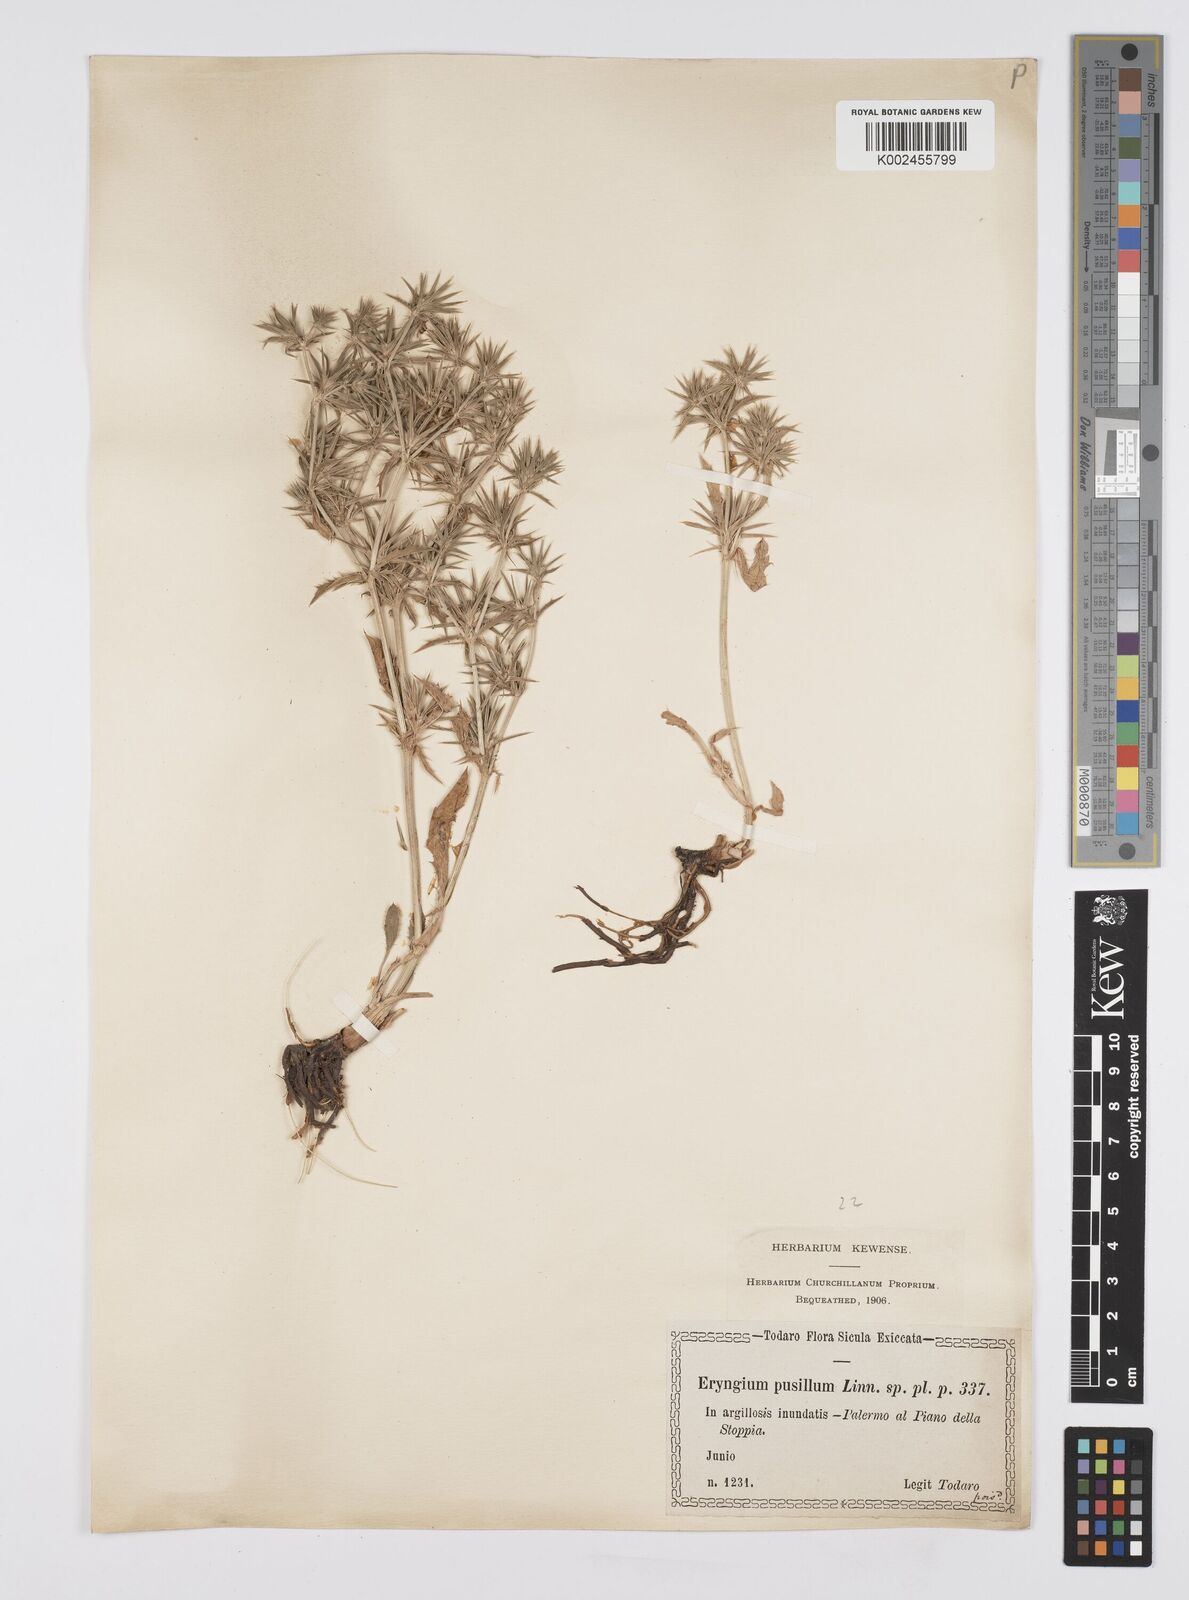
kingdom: Plantae
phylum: Tracheophyta
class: Magnoliopsida
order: Apiales
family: Apiaceae
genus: Eryngium
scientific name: Eryngium pusillum
